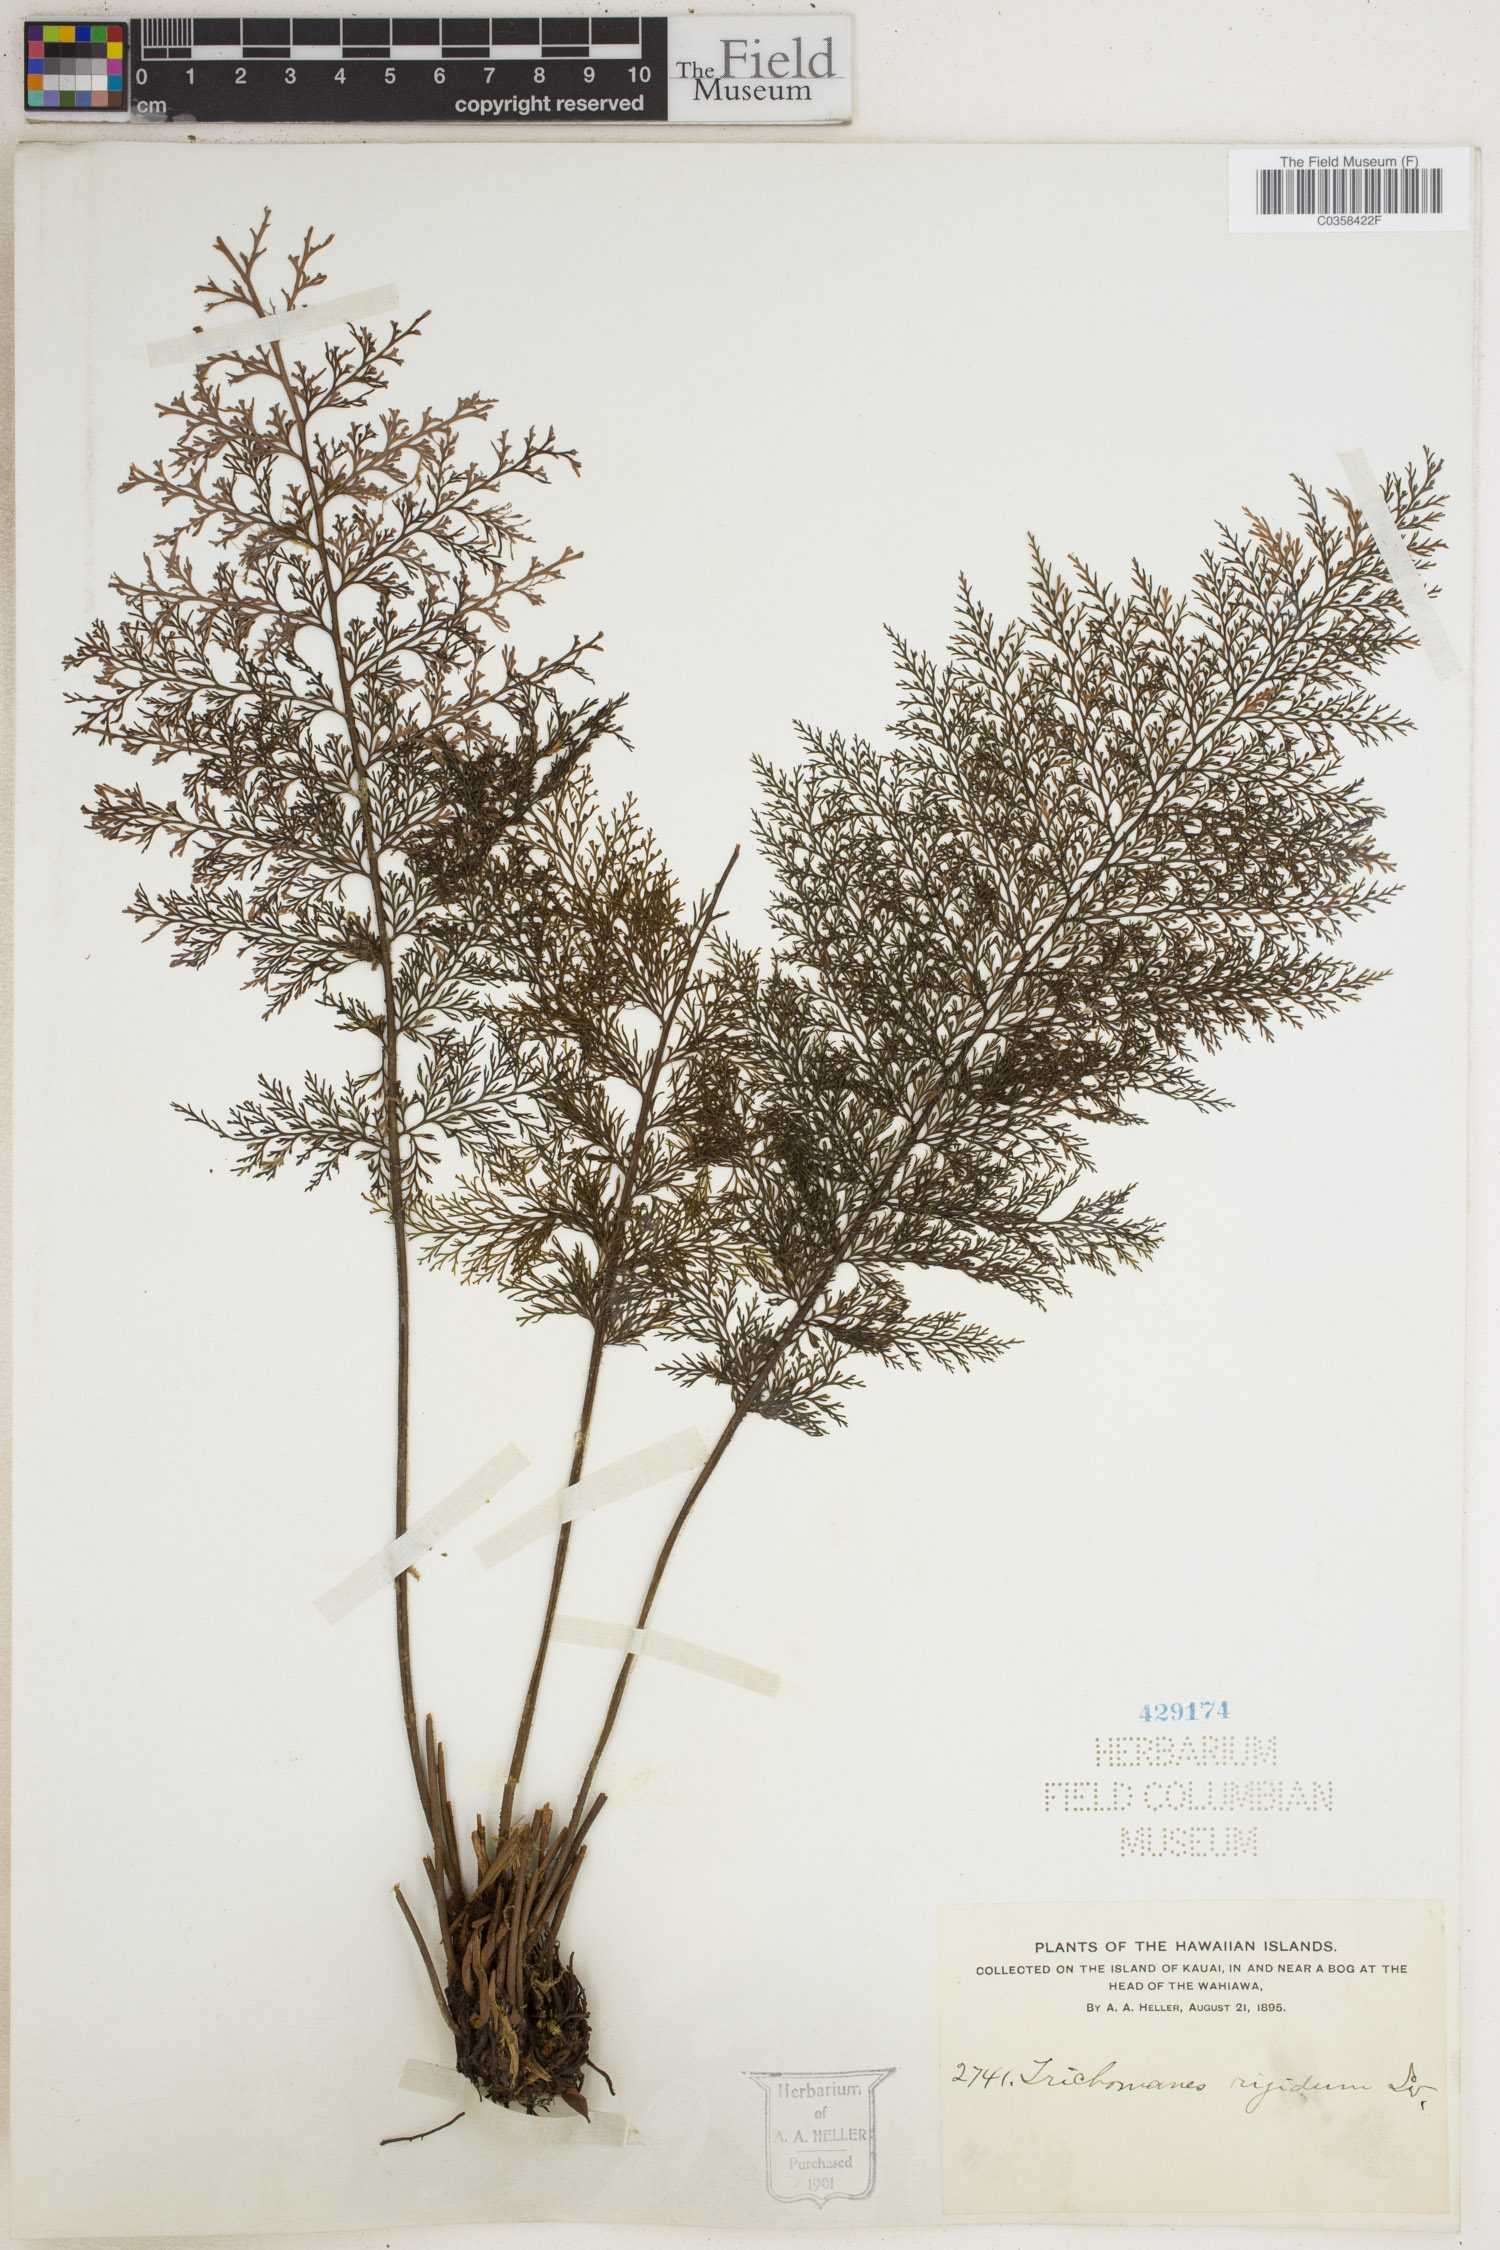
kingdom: Plantae
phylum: Tracheophyta
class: Polypodiopsida
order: Hymenophyllales
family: Hymenophyllaceae
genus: Abrodictyum
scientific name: Abrodictyum rigidum
